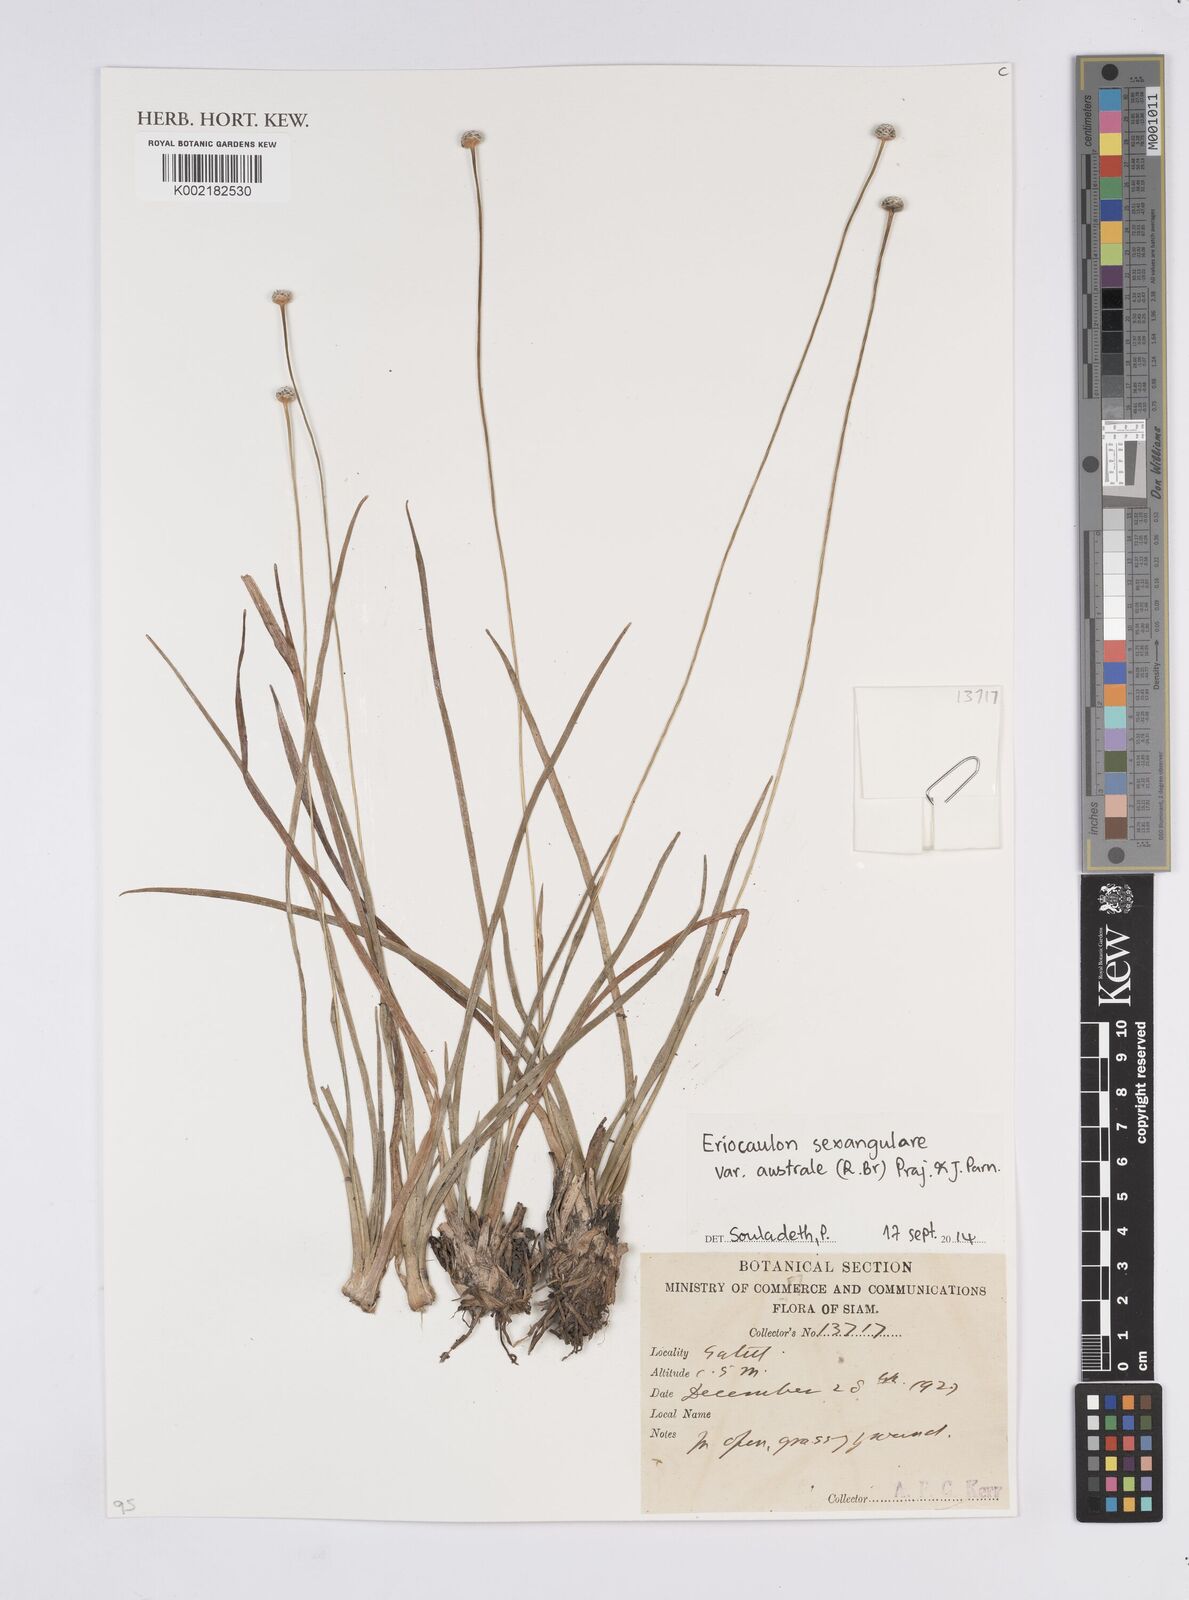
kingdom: Plantae
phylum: Tracheophyta
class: Liliopsida
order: Poales
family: Eriocaulaceae
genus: Eriocaulon
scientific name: Eriocaulon australe
